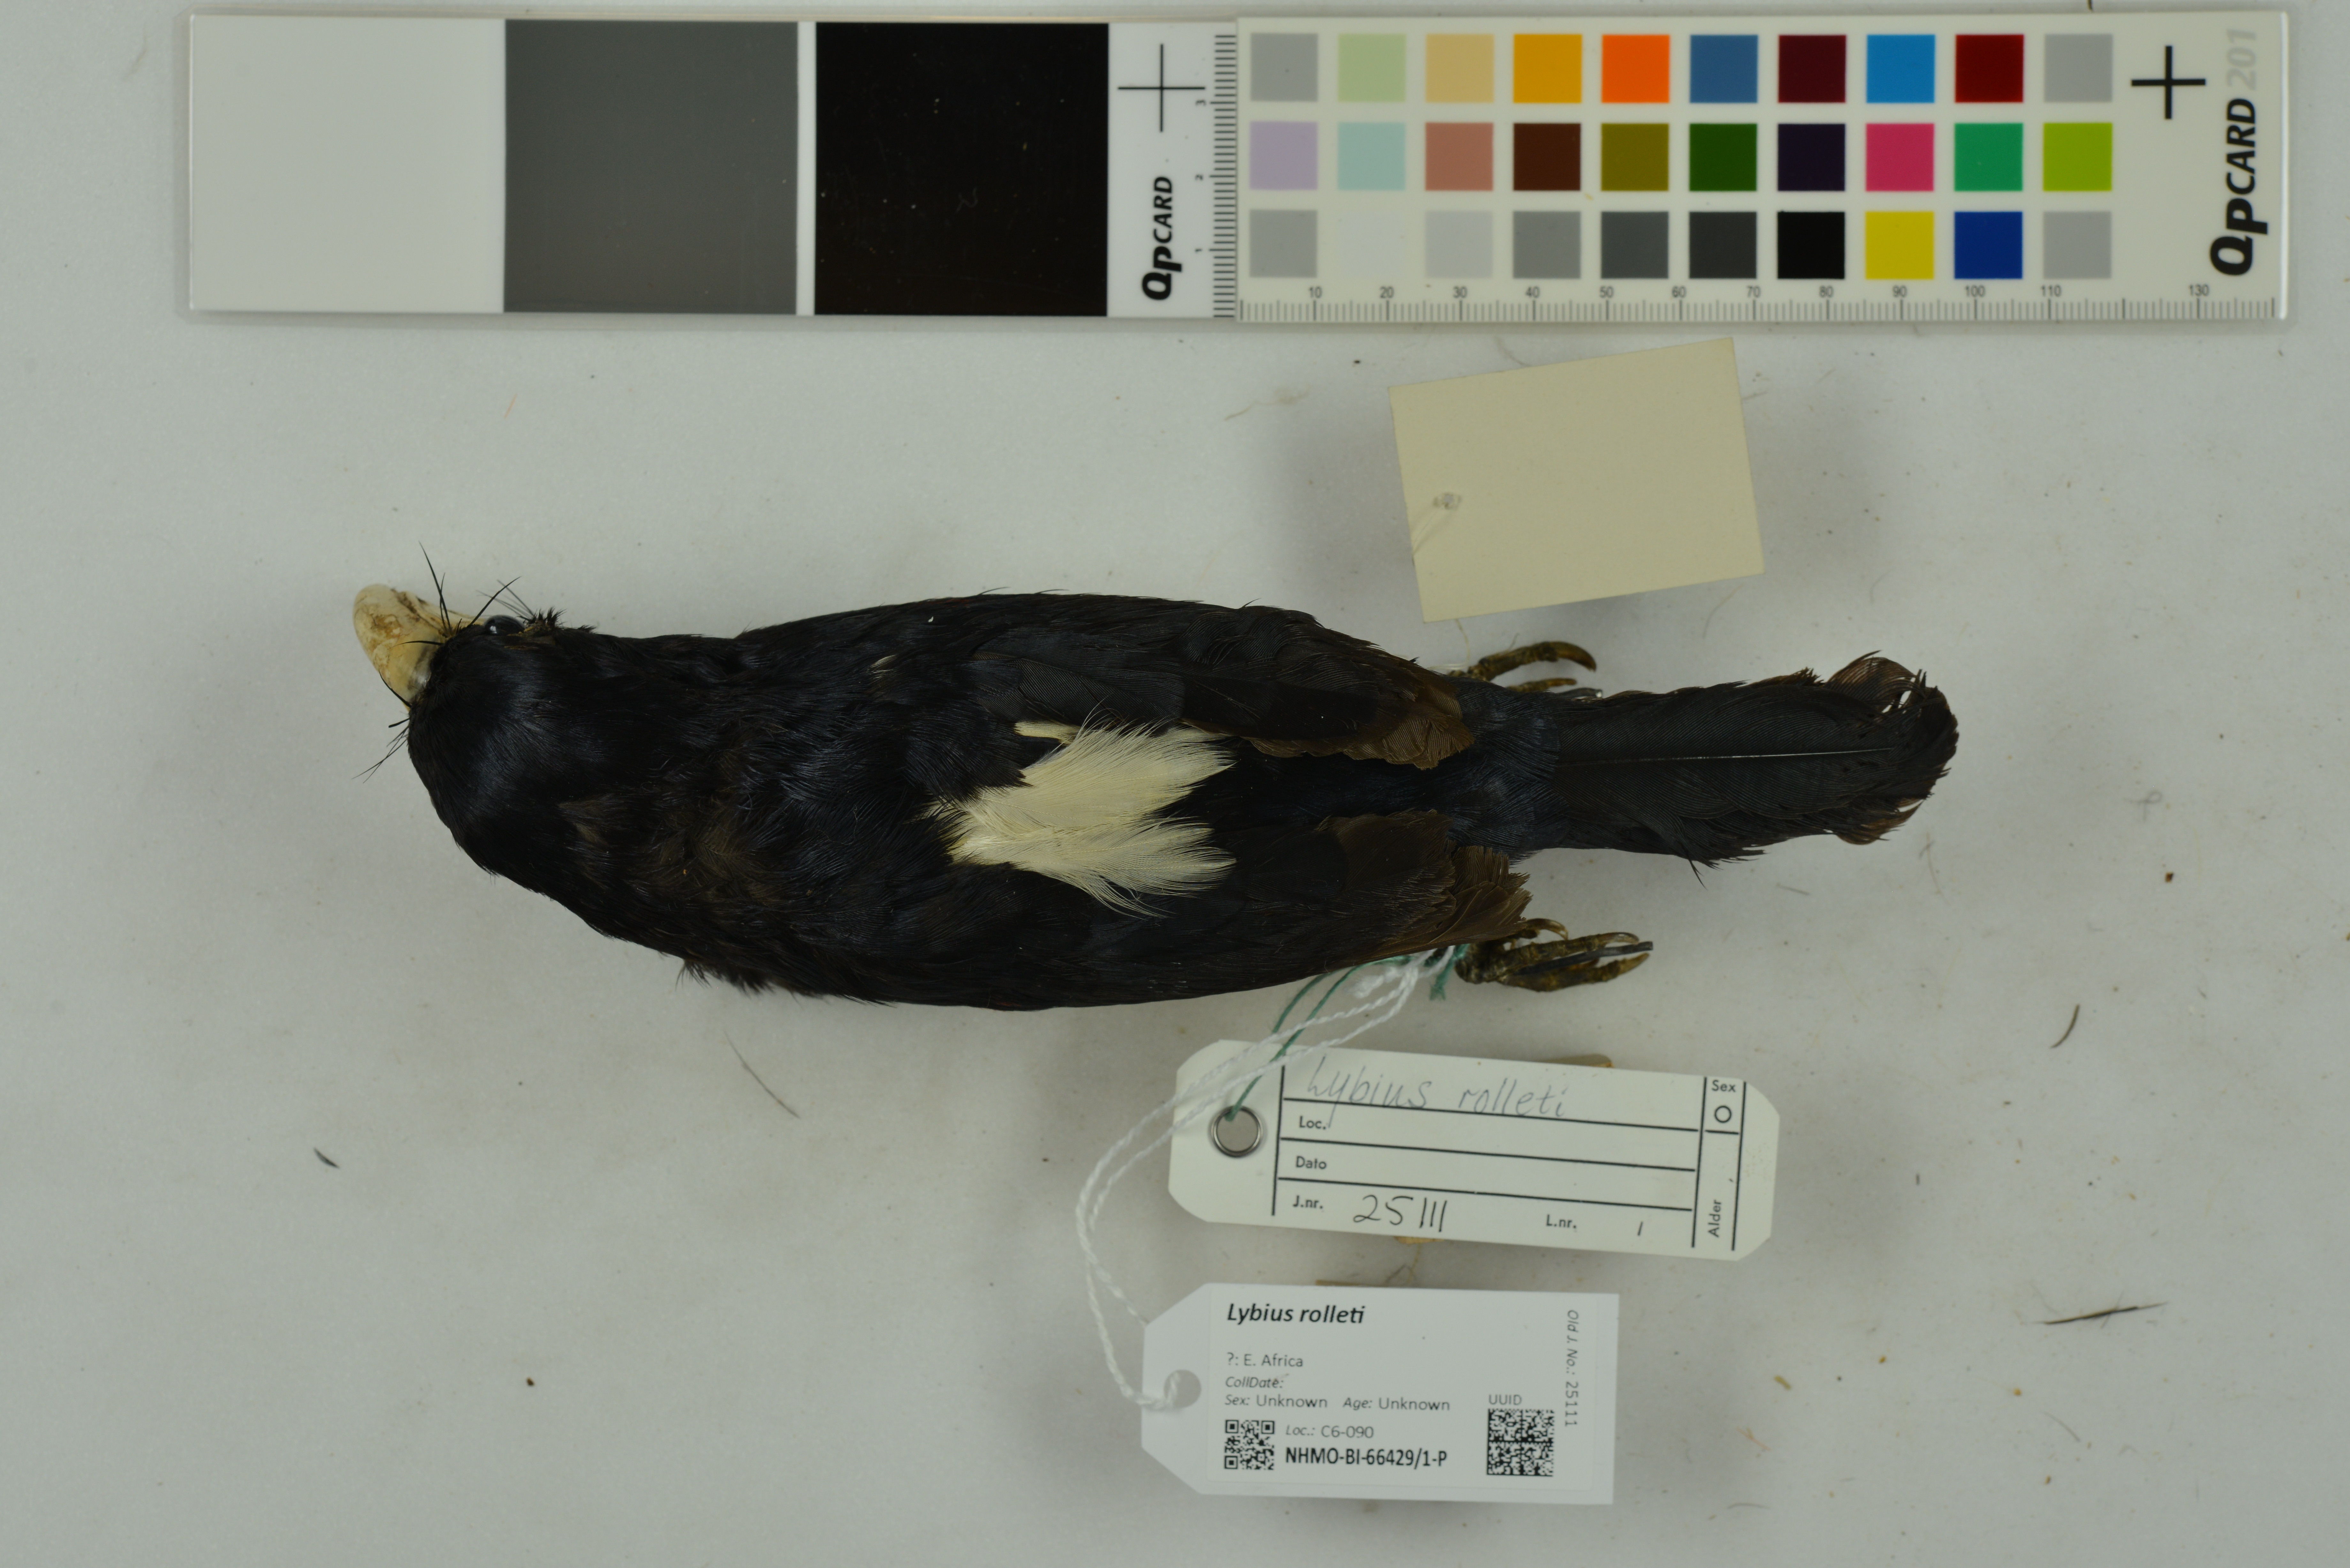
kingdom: Animalia
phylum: Chordata
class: Aves
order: Piciformes
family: Lybiidae
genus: Lybius
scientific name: Lybius rolleti
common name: Black-breasted barbet
